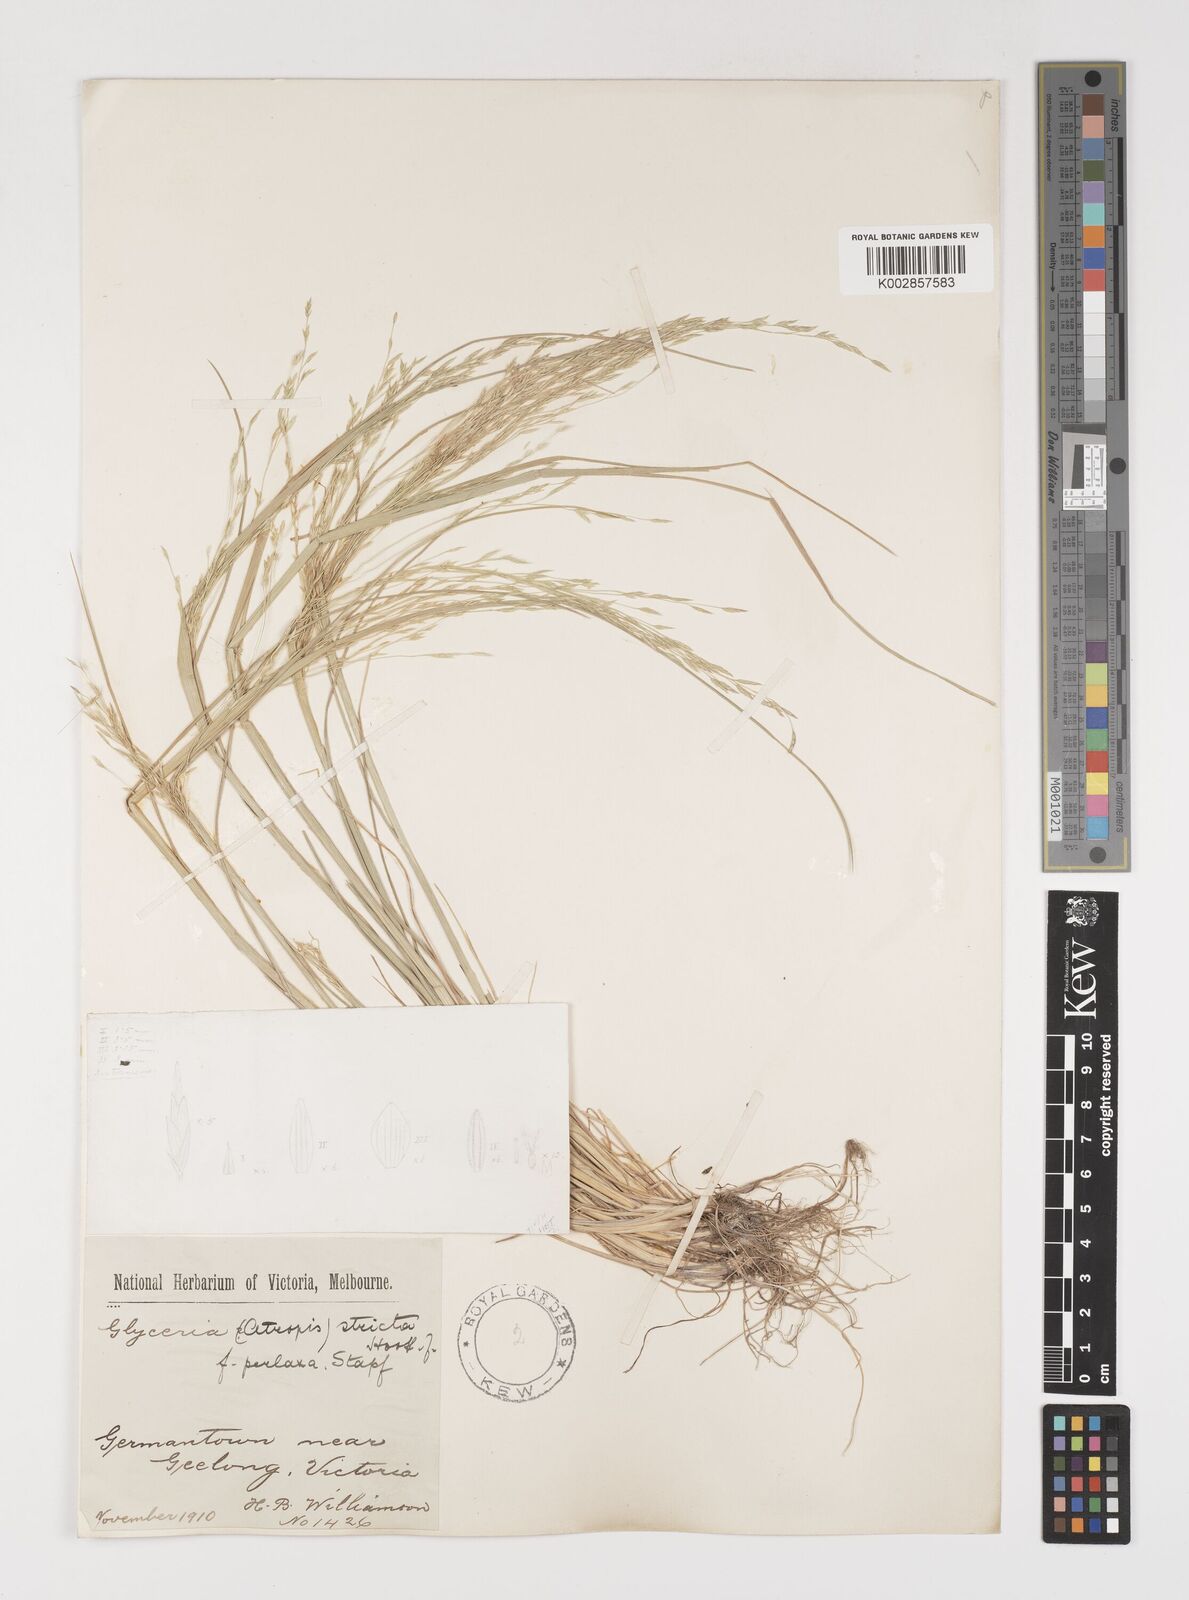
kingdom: Plantae
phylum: Tracheophyta
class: Liliopsida
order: Poales
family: Poaceae
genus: Puccinellia
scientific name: Puccinellia stricta
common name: Australian saltmarsh grass
